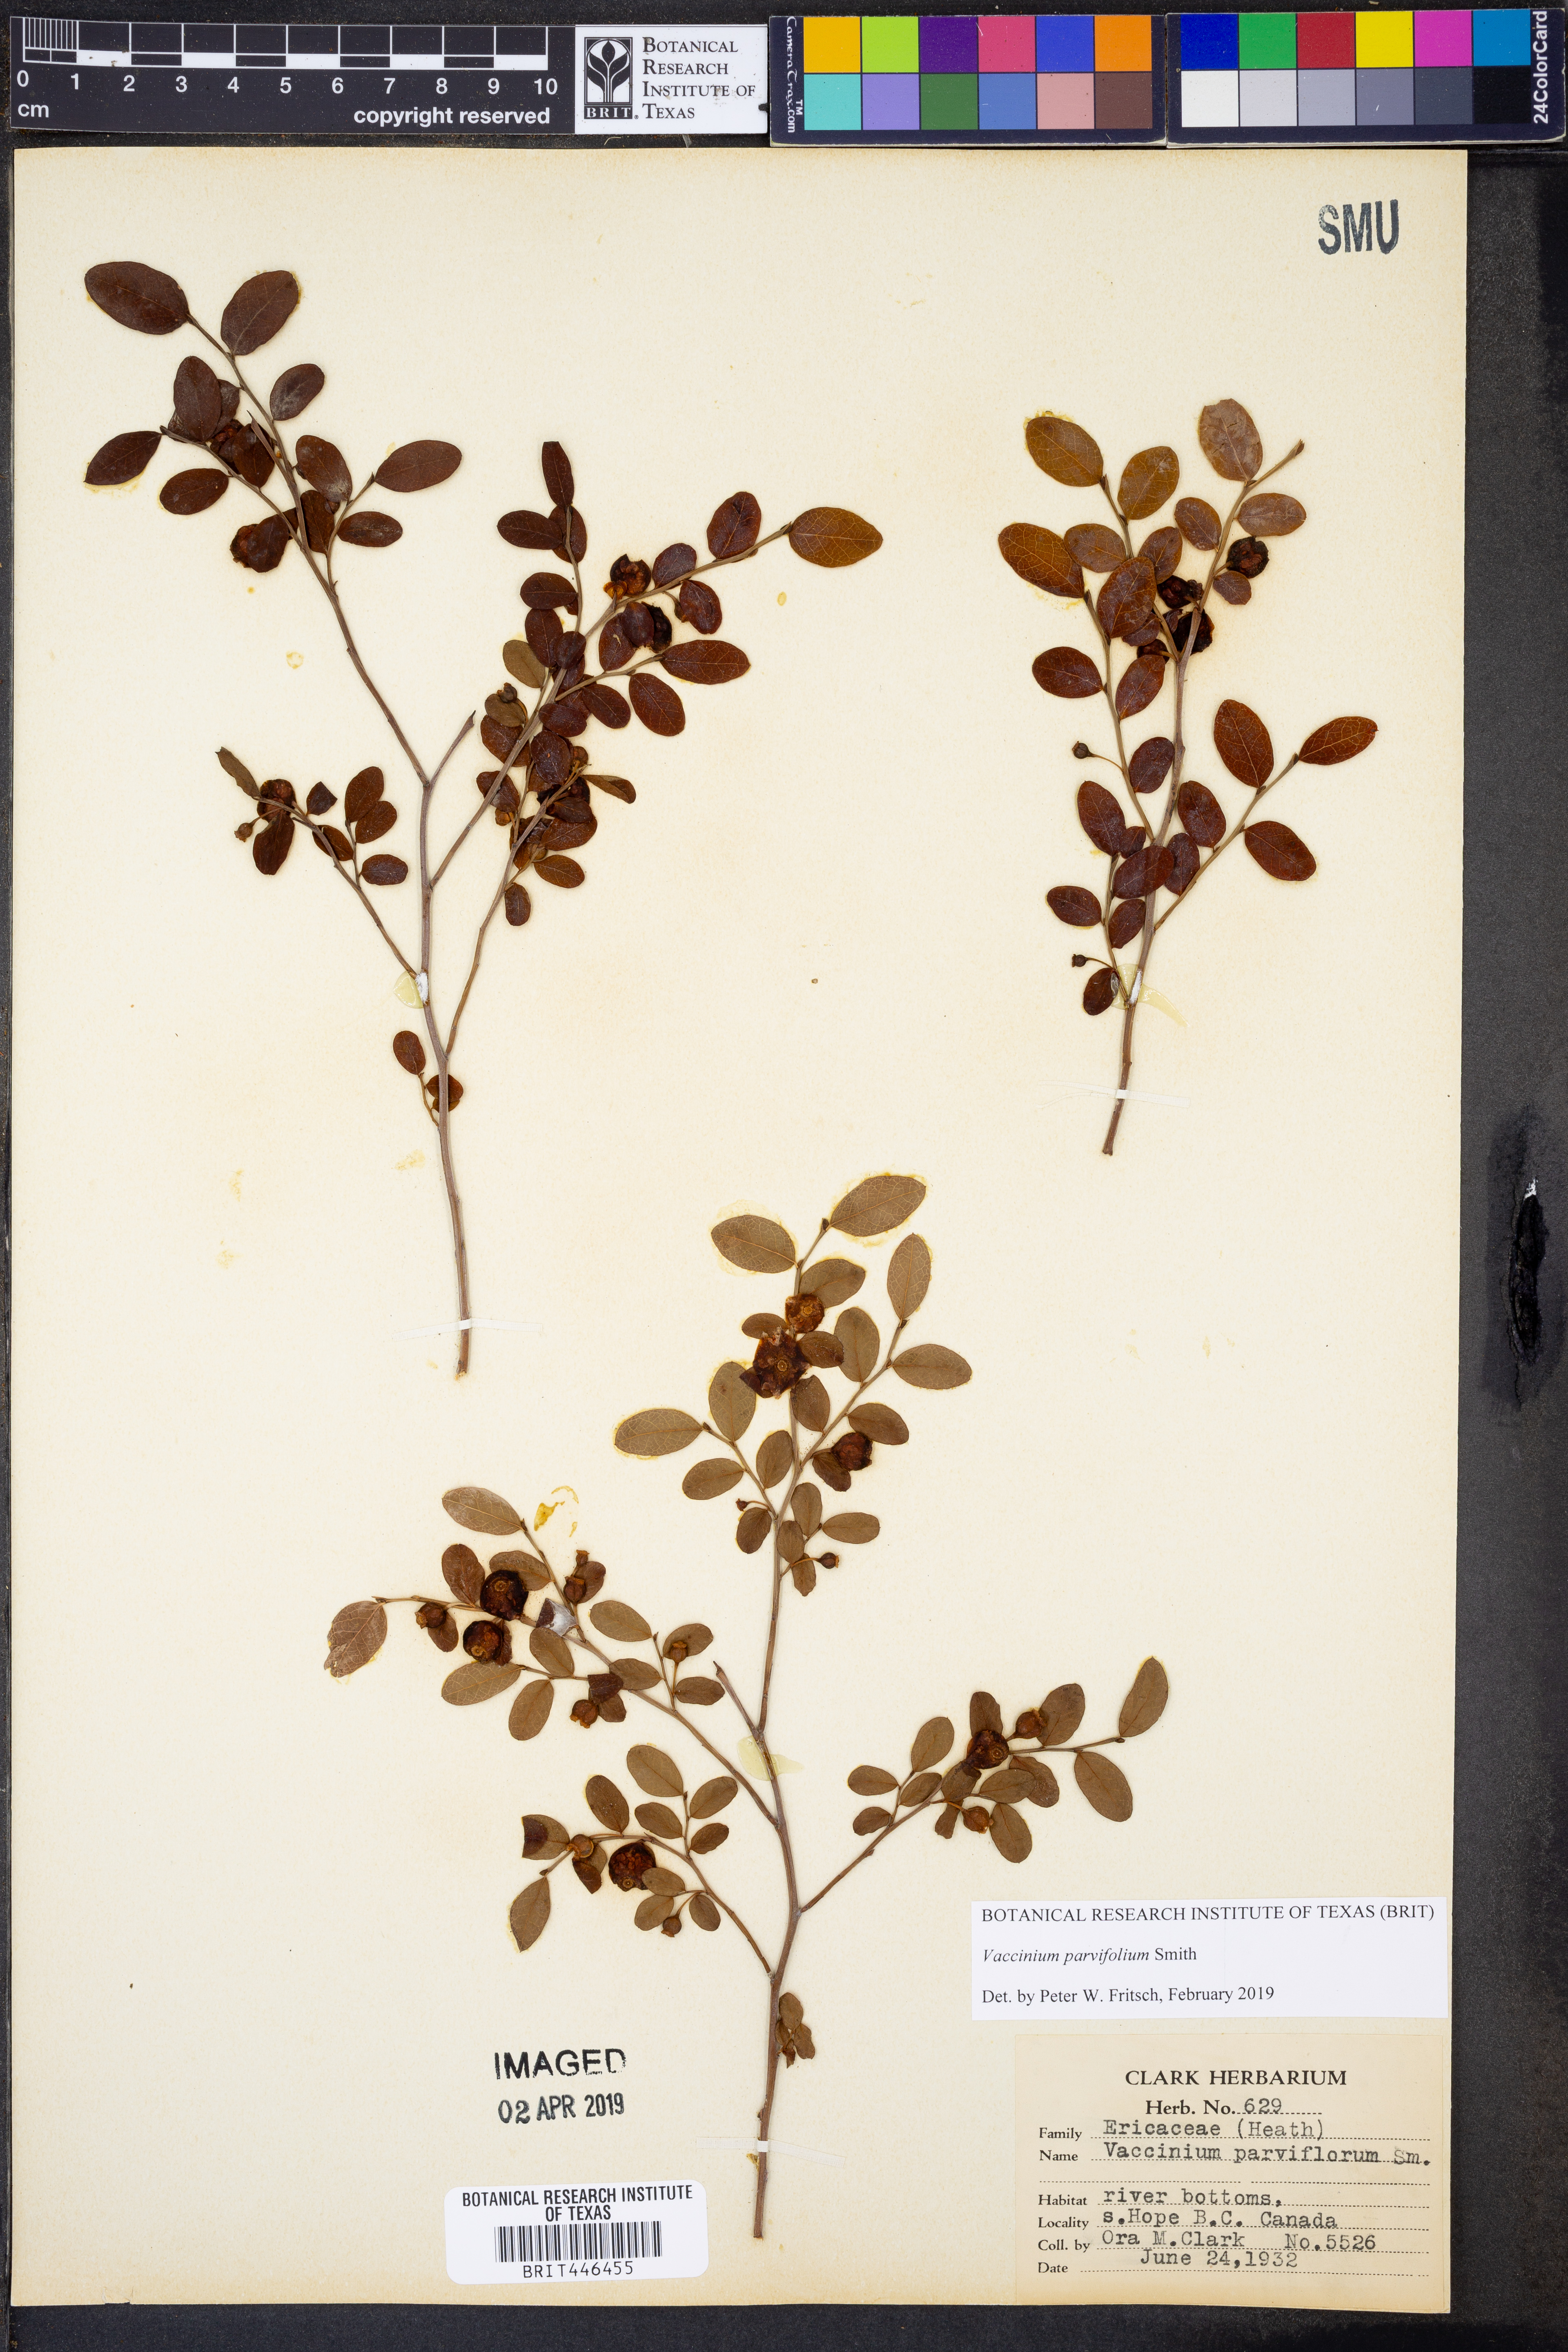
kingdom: Plantae
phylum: Tracheophyta
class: Magnoliopsida
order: Ericales
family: Ericaceae
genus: Vaccinium
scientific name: Vaccinium parvifolium
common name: Red-huckleberry
